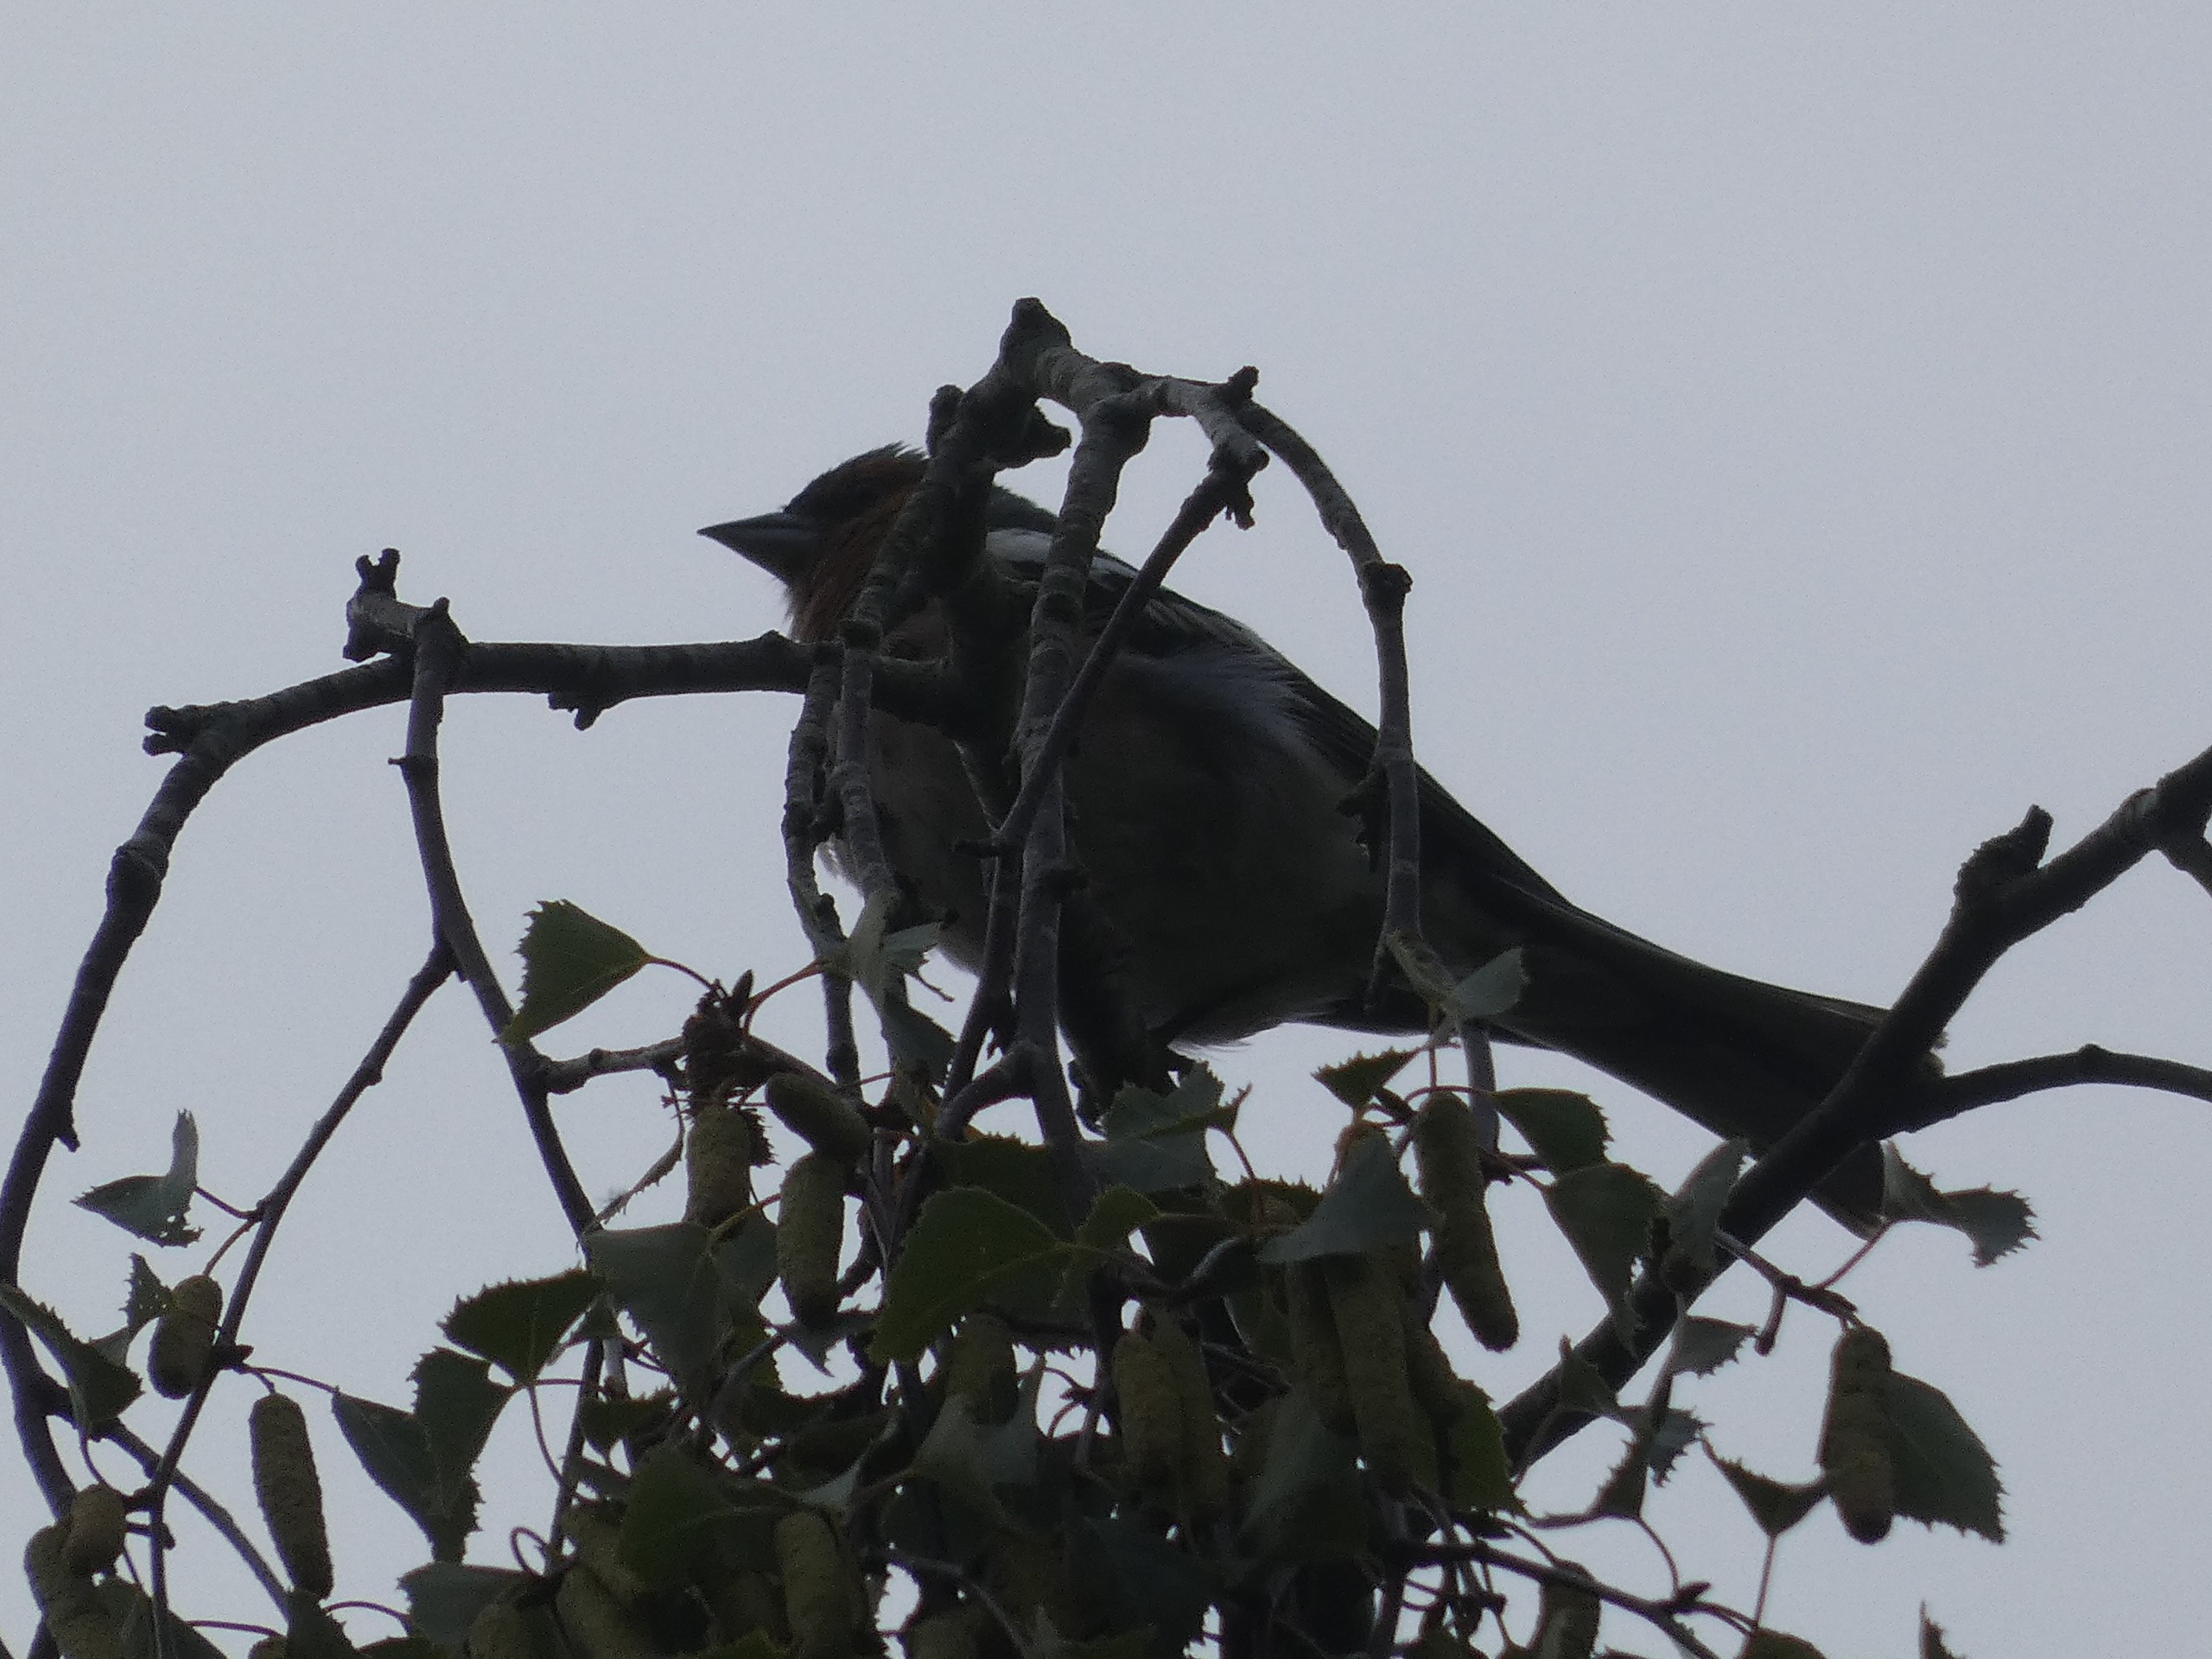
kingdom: Animalia
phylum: Chordata
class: Aves
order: Passeriformes
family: Fringillidae
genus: Fringilla
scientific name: Fringilla coelebs
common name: Bogfinke
